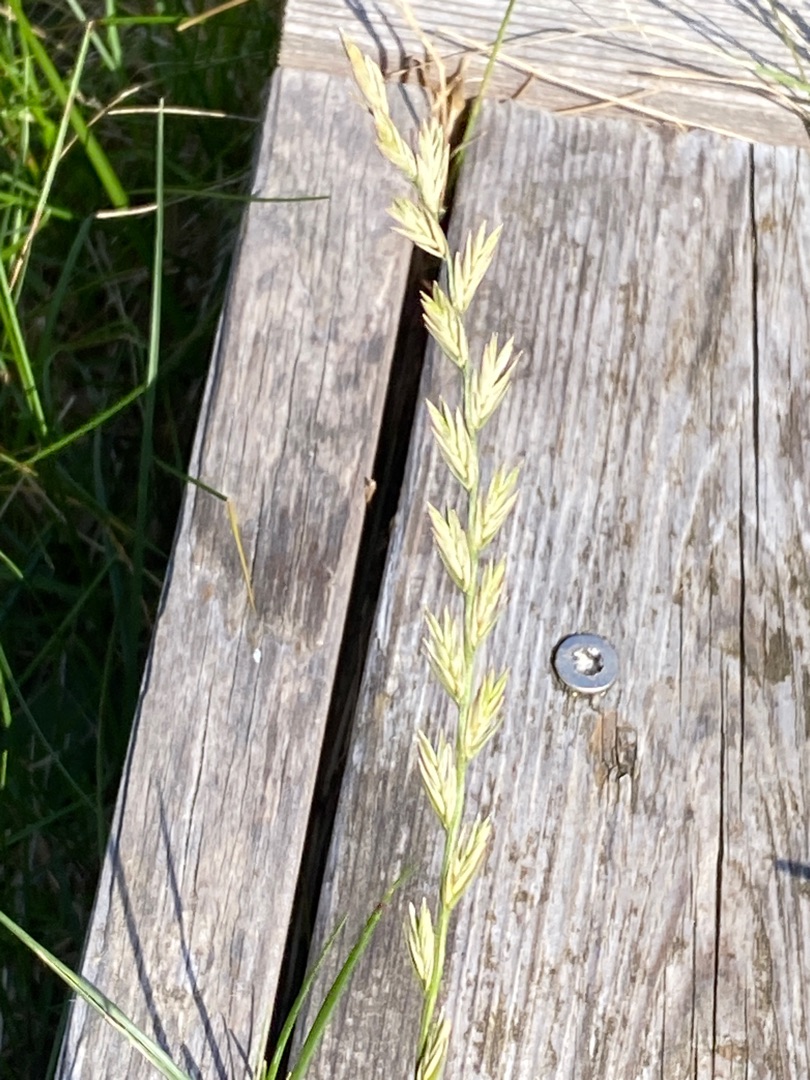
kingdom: Plantae
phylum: Tracheophyta
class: Liliopsida
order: Poales
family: Poaceae
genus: Lolium
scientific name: Lolium perenne
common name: Almindelig rajgræs
